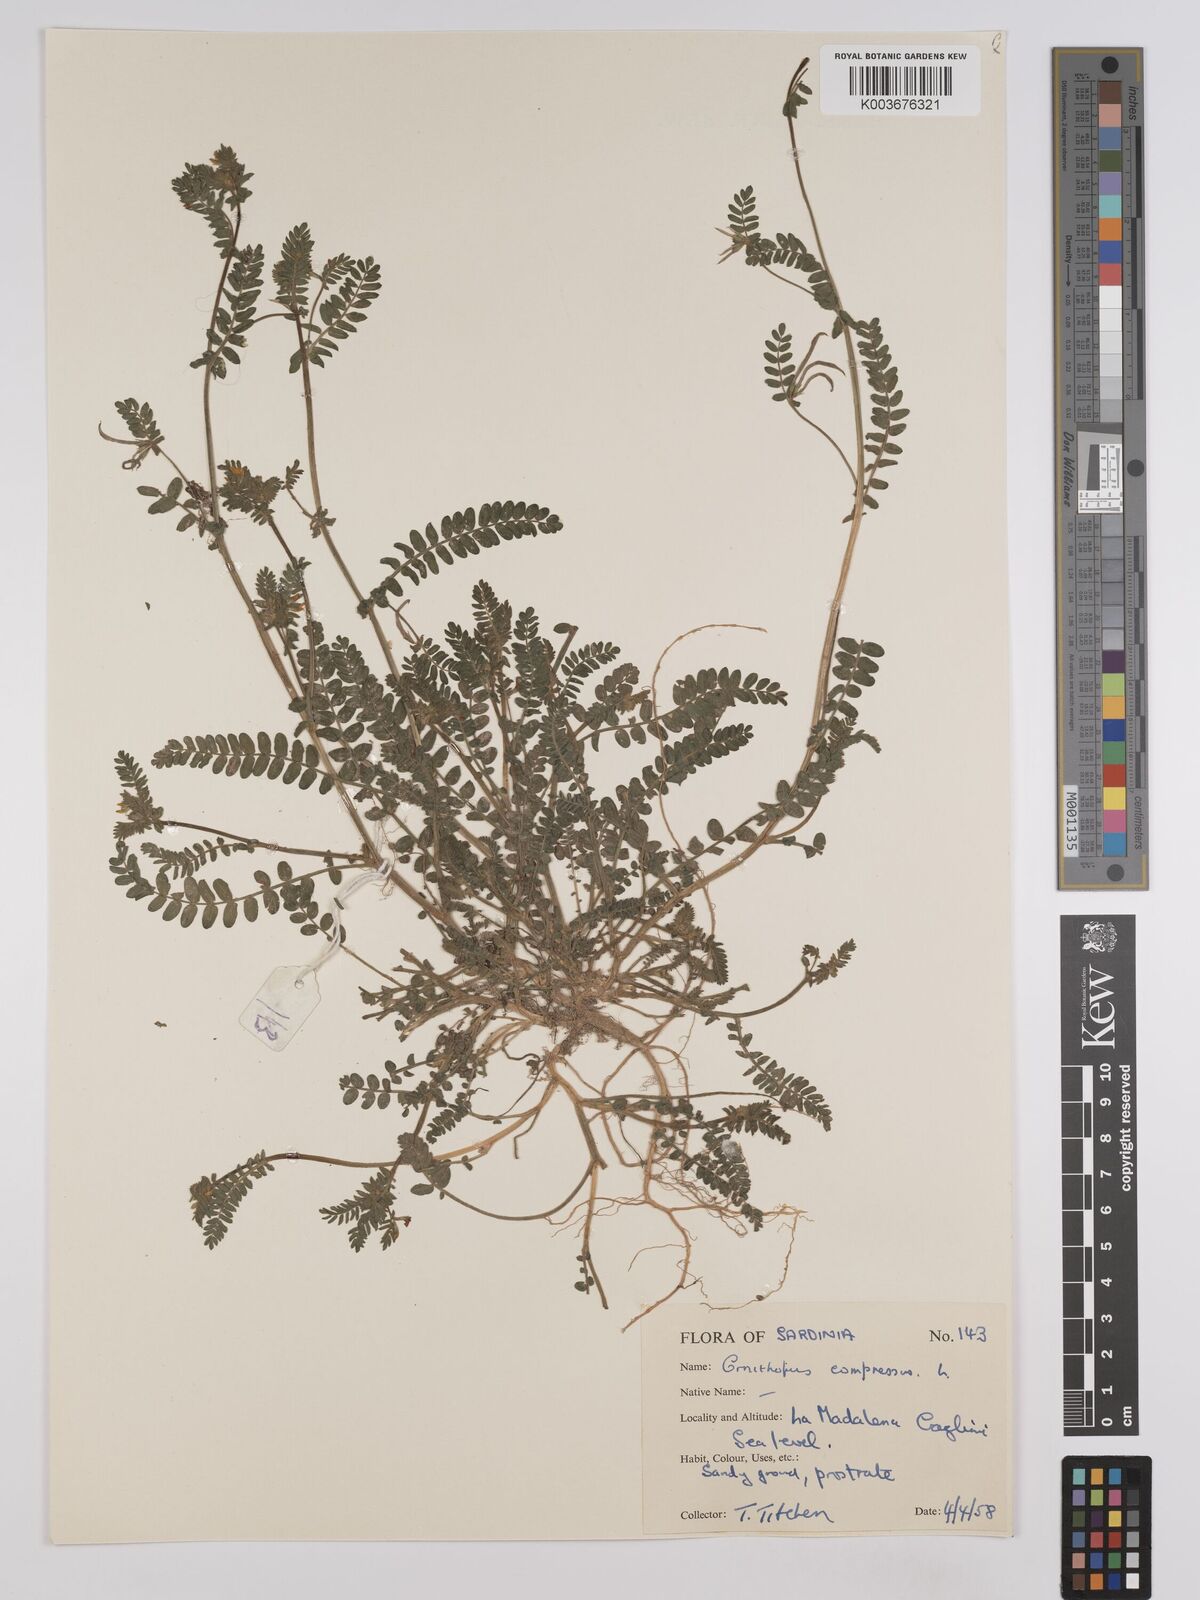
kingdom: Plantae
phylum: Tracheophyta
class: Magnoliopsida
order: Fabales
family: Fabaceae
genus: Ornithopus
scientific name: Ornithopus compressus
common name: Yellow serradella
